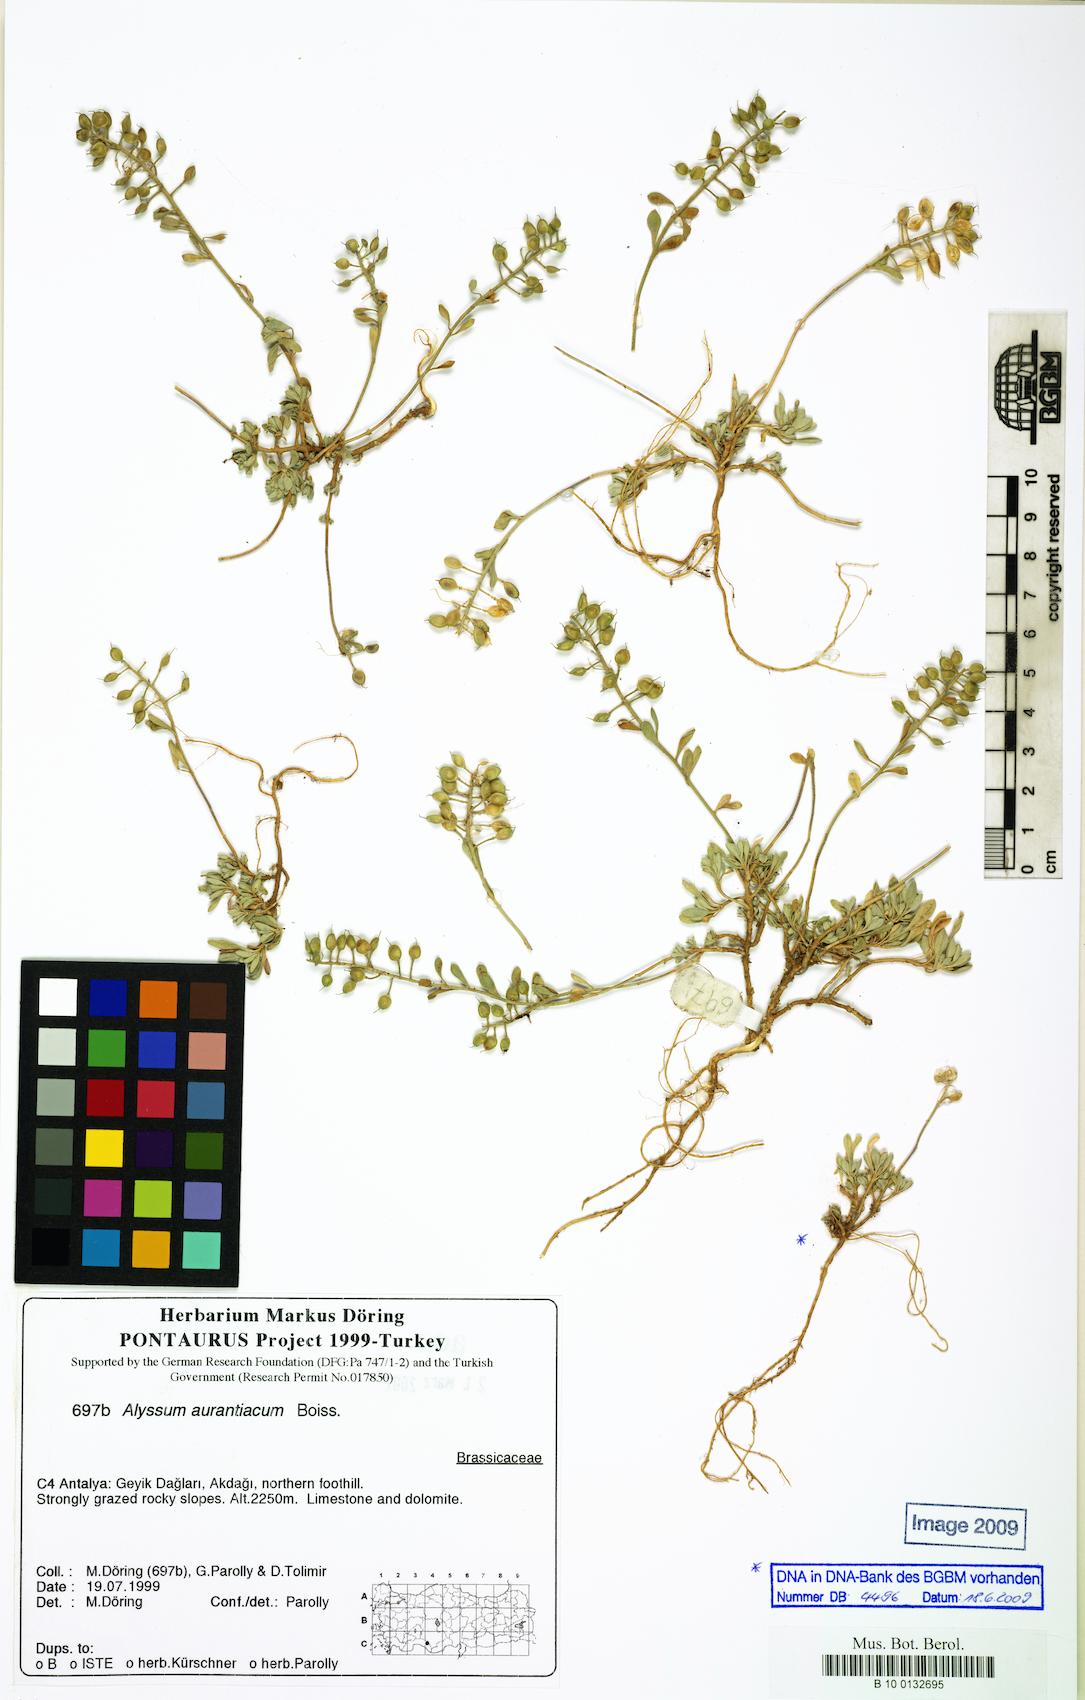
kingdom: Plantae
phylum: Tracheophyta
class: Magnoliopsida
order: Brassicales
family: Brassicaceae
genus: Alyssum
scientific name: Alyssum aurantiacum
